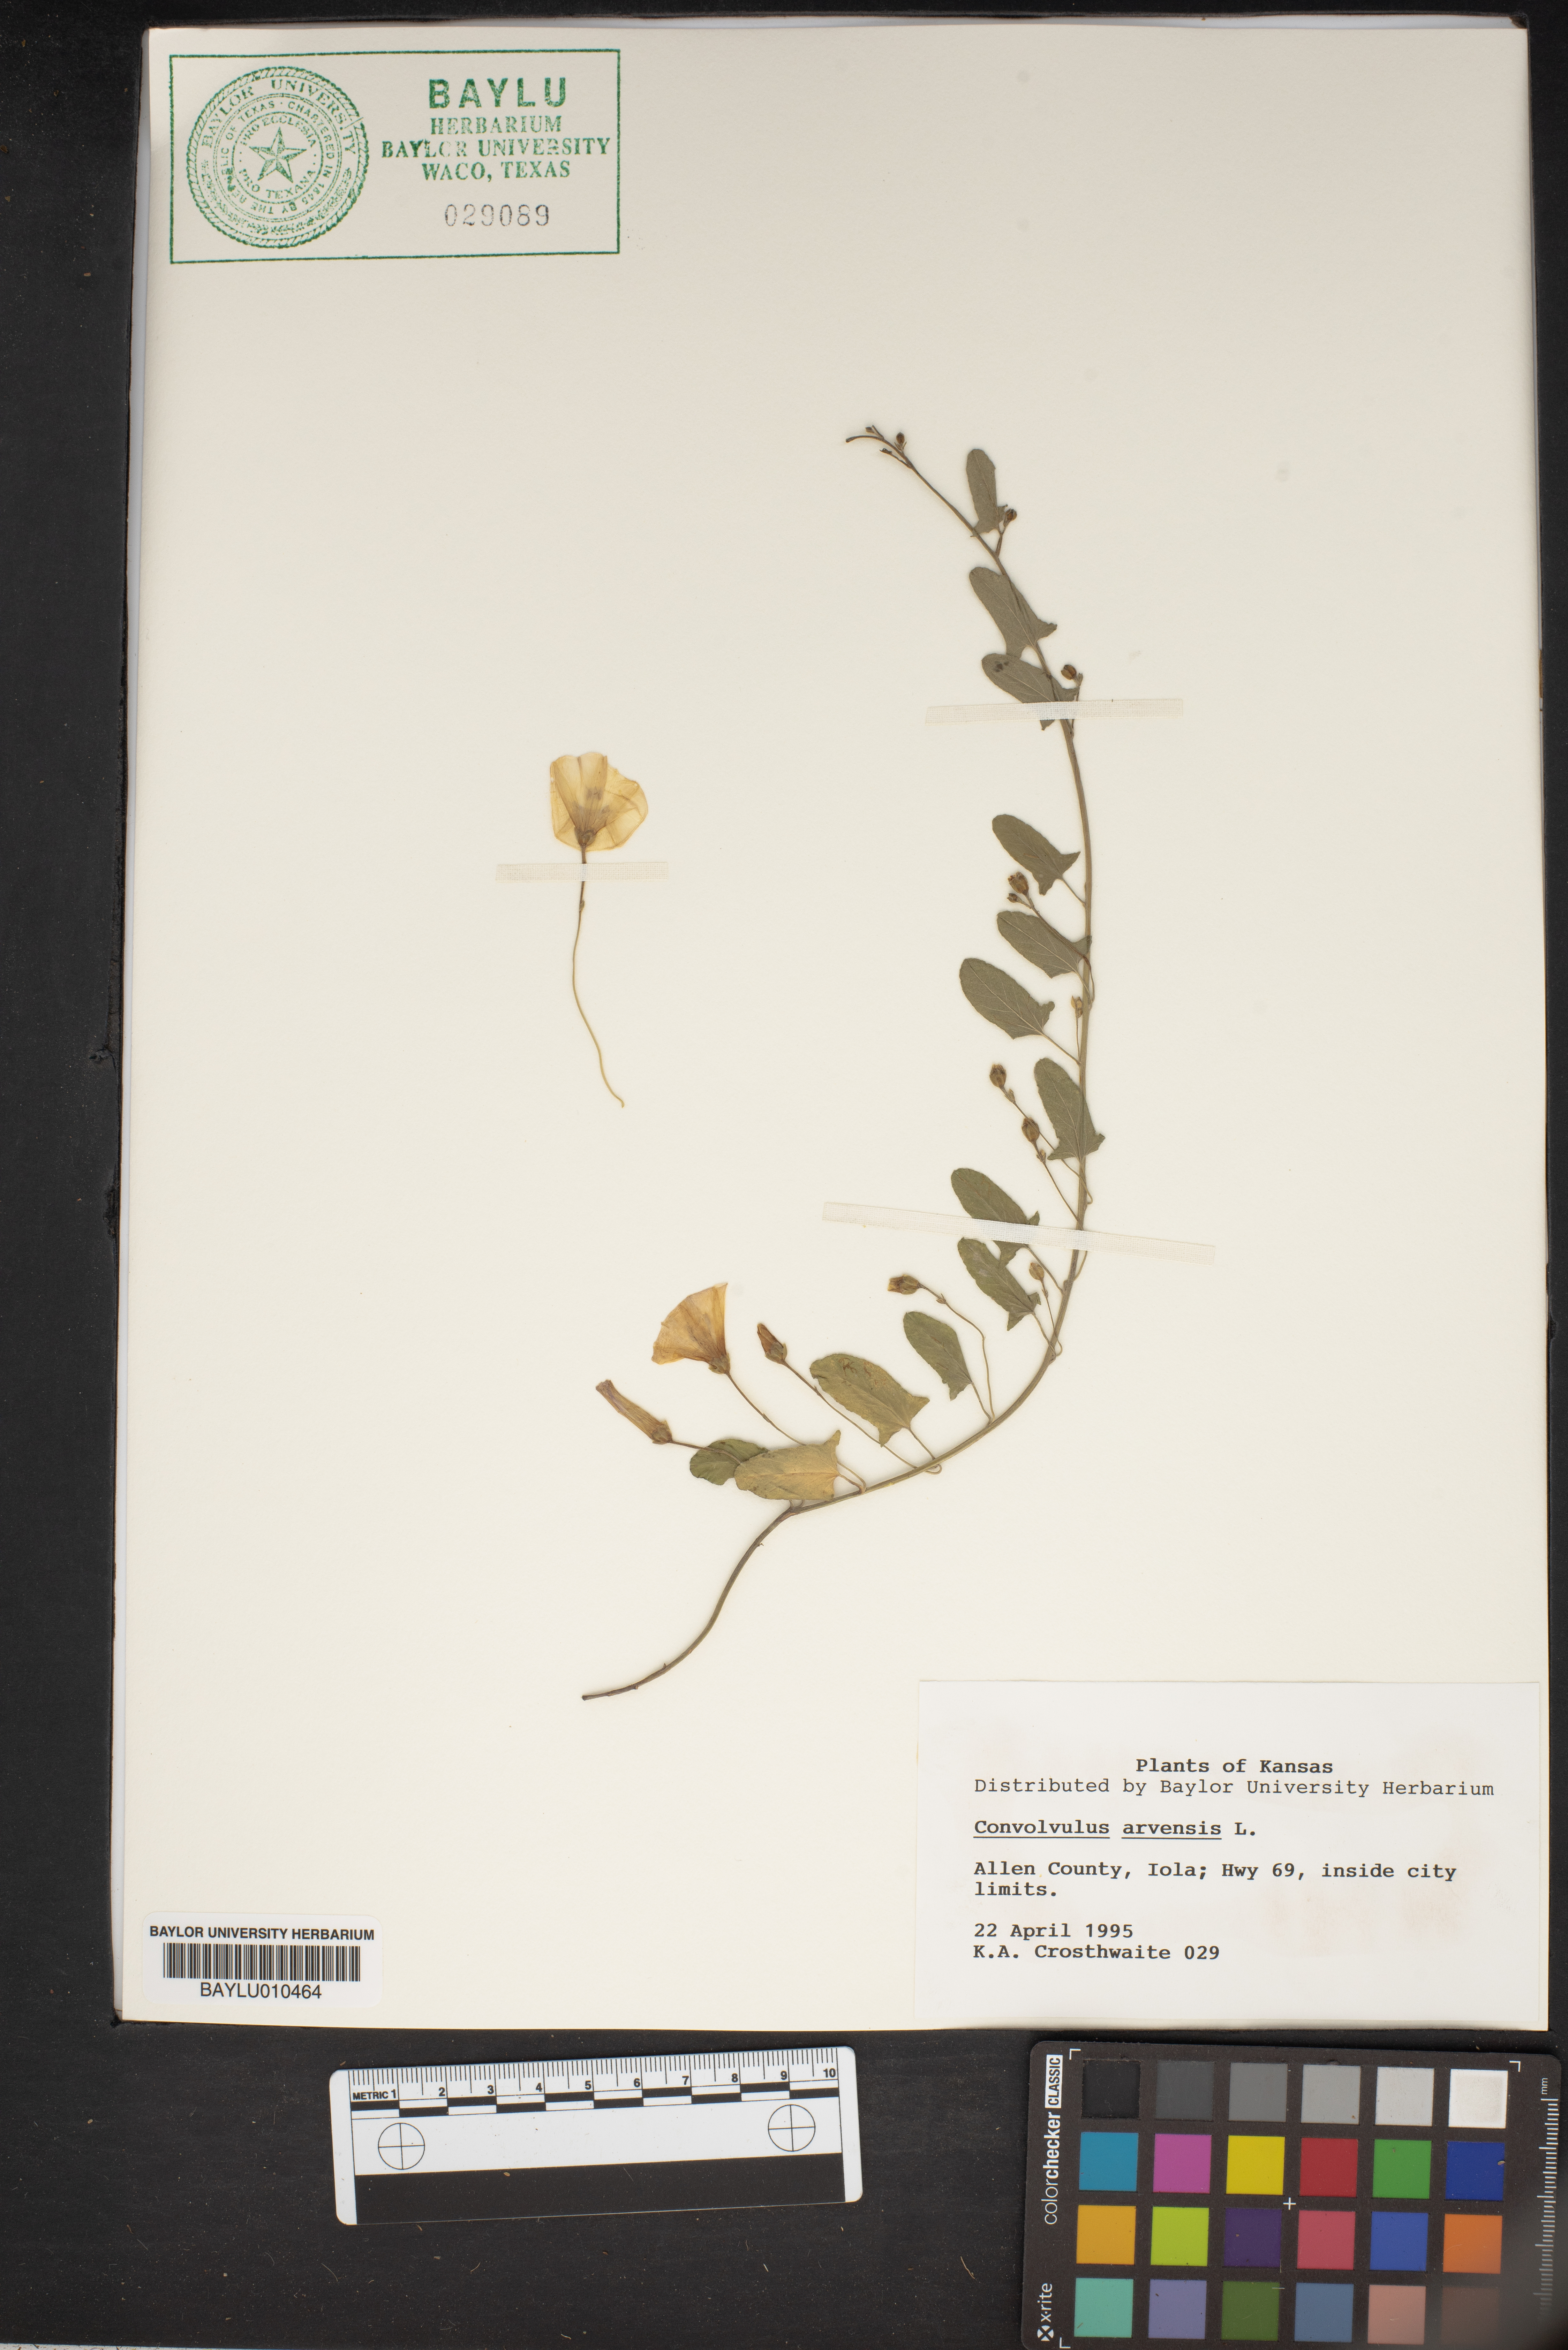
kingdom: Plantae
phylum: Tracheophyta
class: Magnoliopsida
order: Solanales
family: Convolvulaceae
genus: Convolvulus
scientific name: Convolvulus arvensis
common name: Field bindweed
